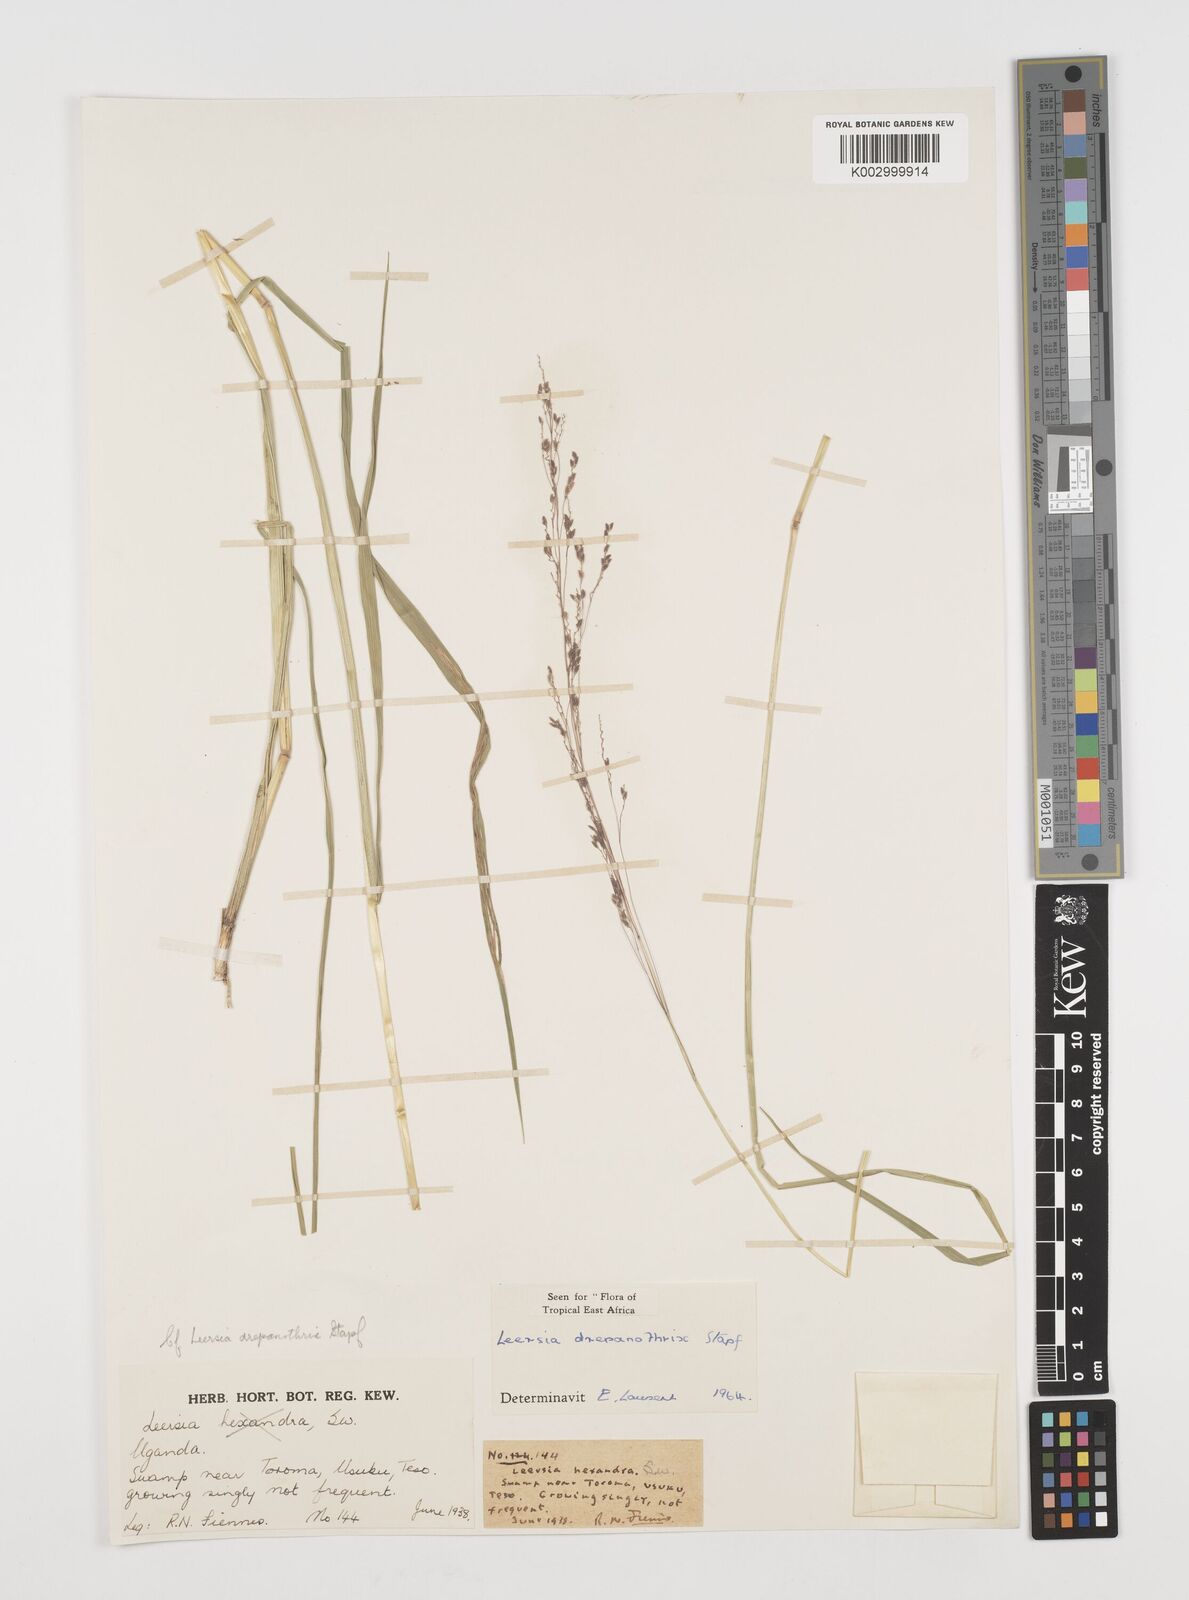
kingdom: Plantae
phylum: Tracheophyta
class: Liliopsida
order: Poales
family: Poaceae
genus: Leersia
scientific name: Leersia drepanothrix
